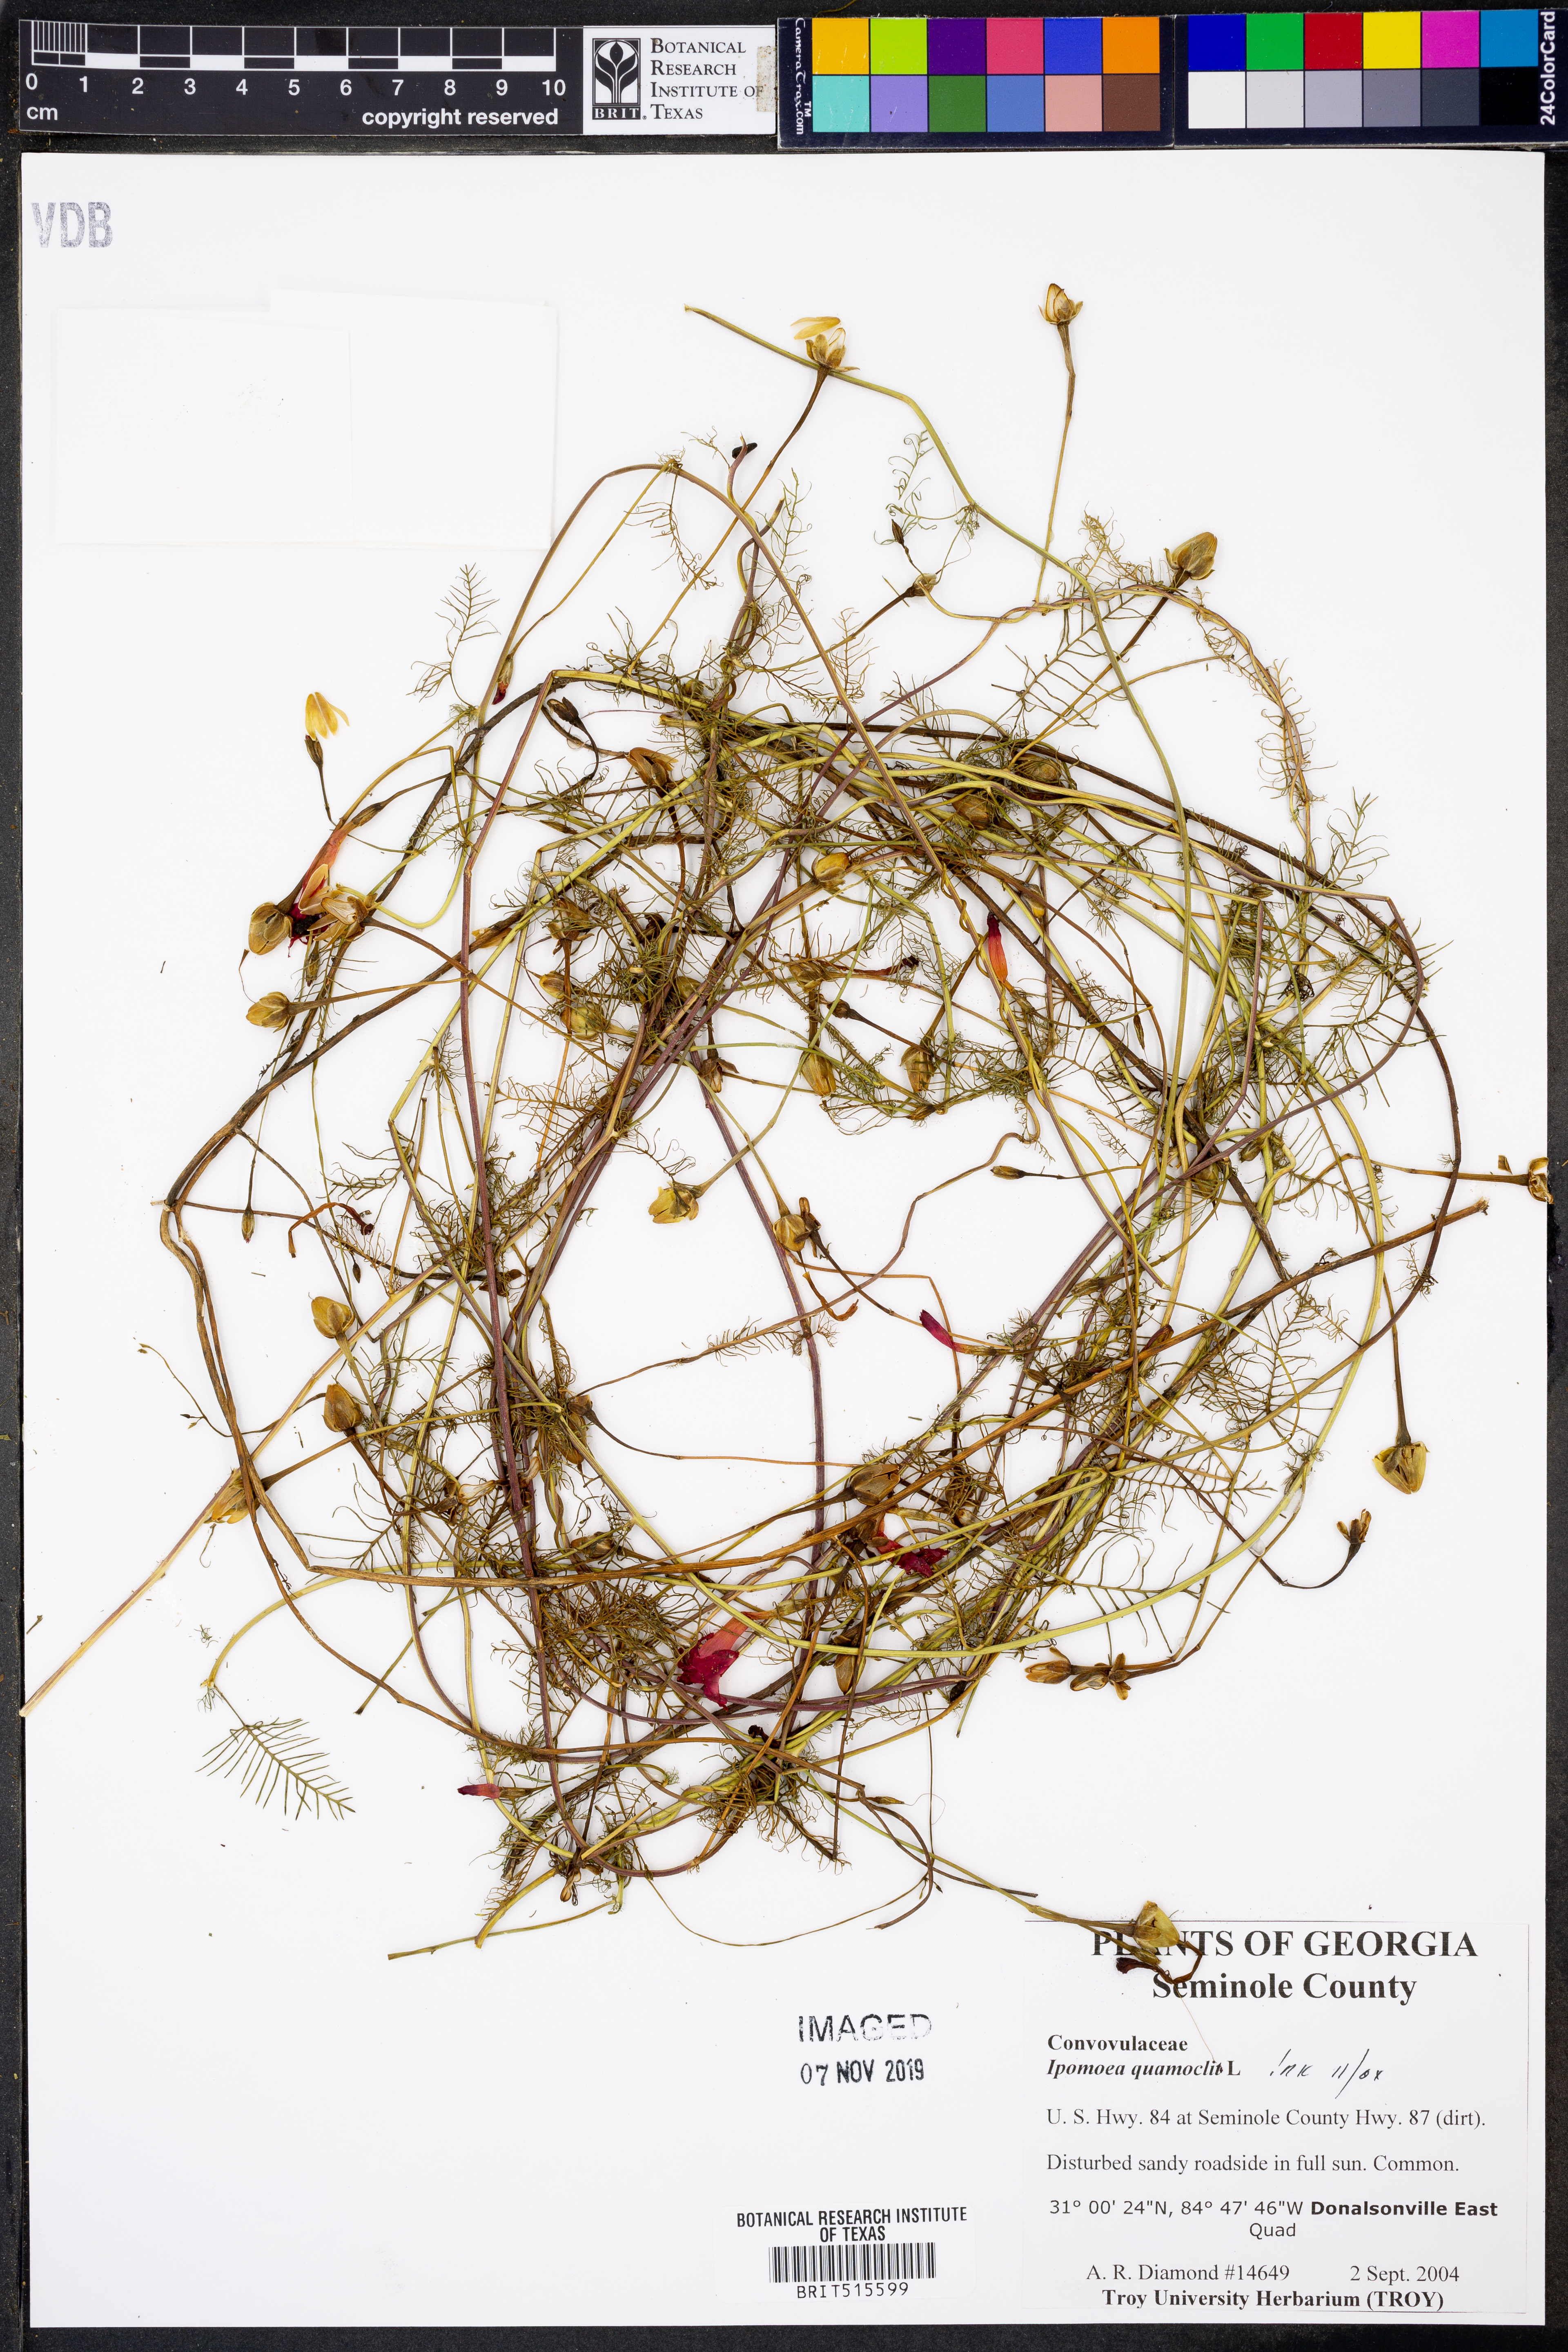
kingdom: Plantae
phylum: Tracheophyta
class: Magnoliopsida
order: Solanales
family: Convolvulaceae
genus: Ipomoea
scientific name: Ipomoea quamoclit
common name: Cypress vine
